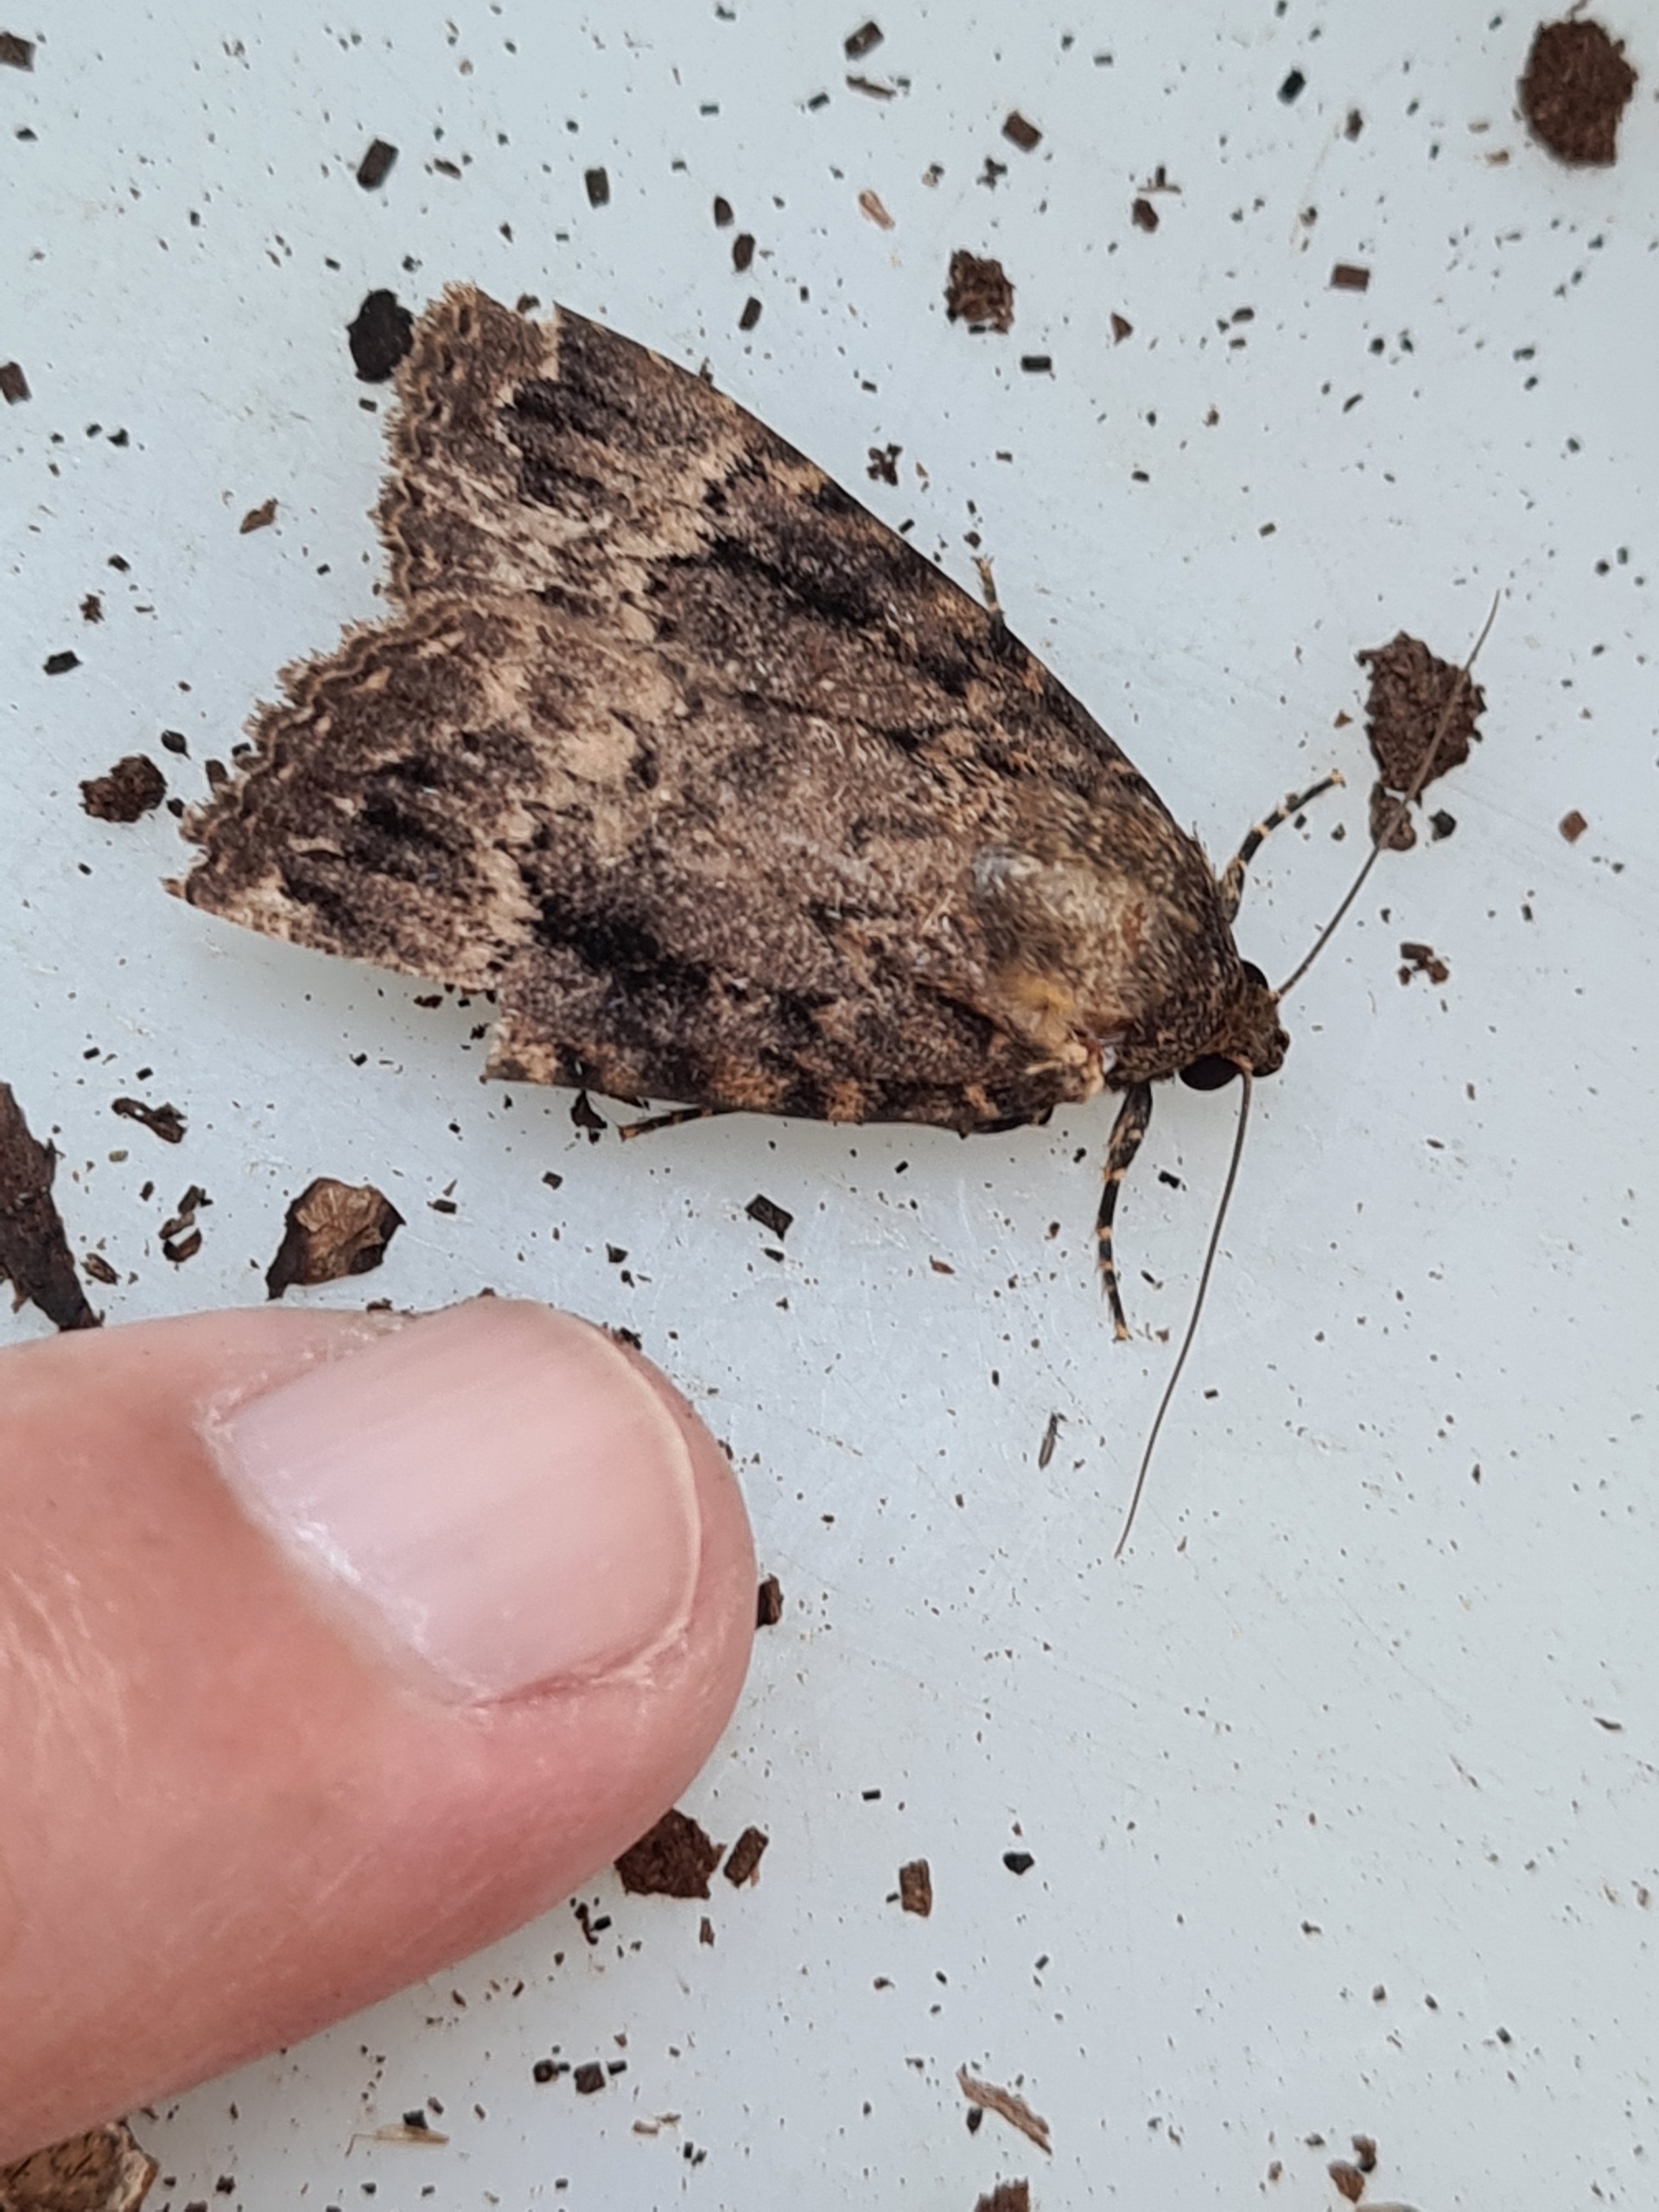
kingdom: Animalia
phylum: Arthropoda
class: Insecta
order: Lepidoptera
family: Noctuidae
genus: Amphipyra
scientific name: Amphipyra pyramidea
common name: Pyramideugle
